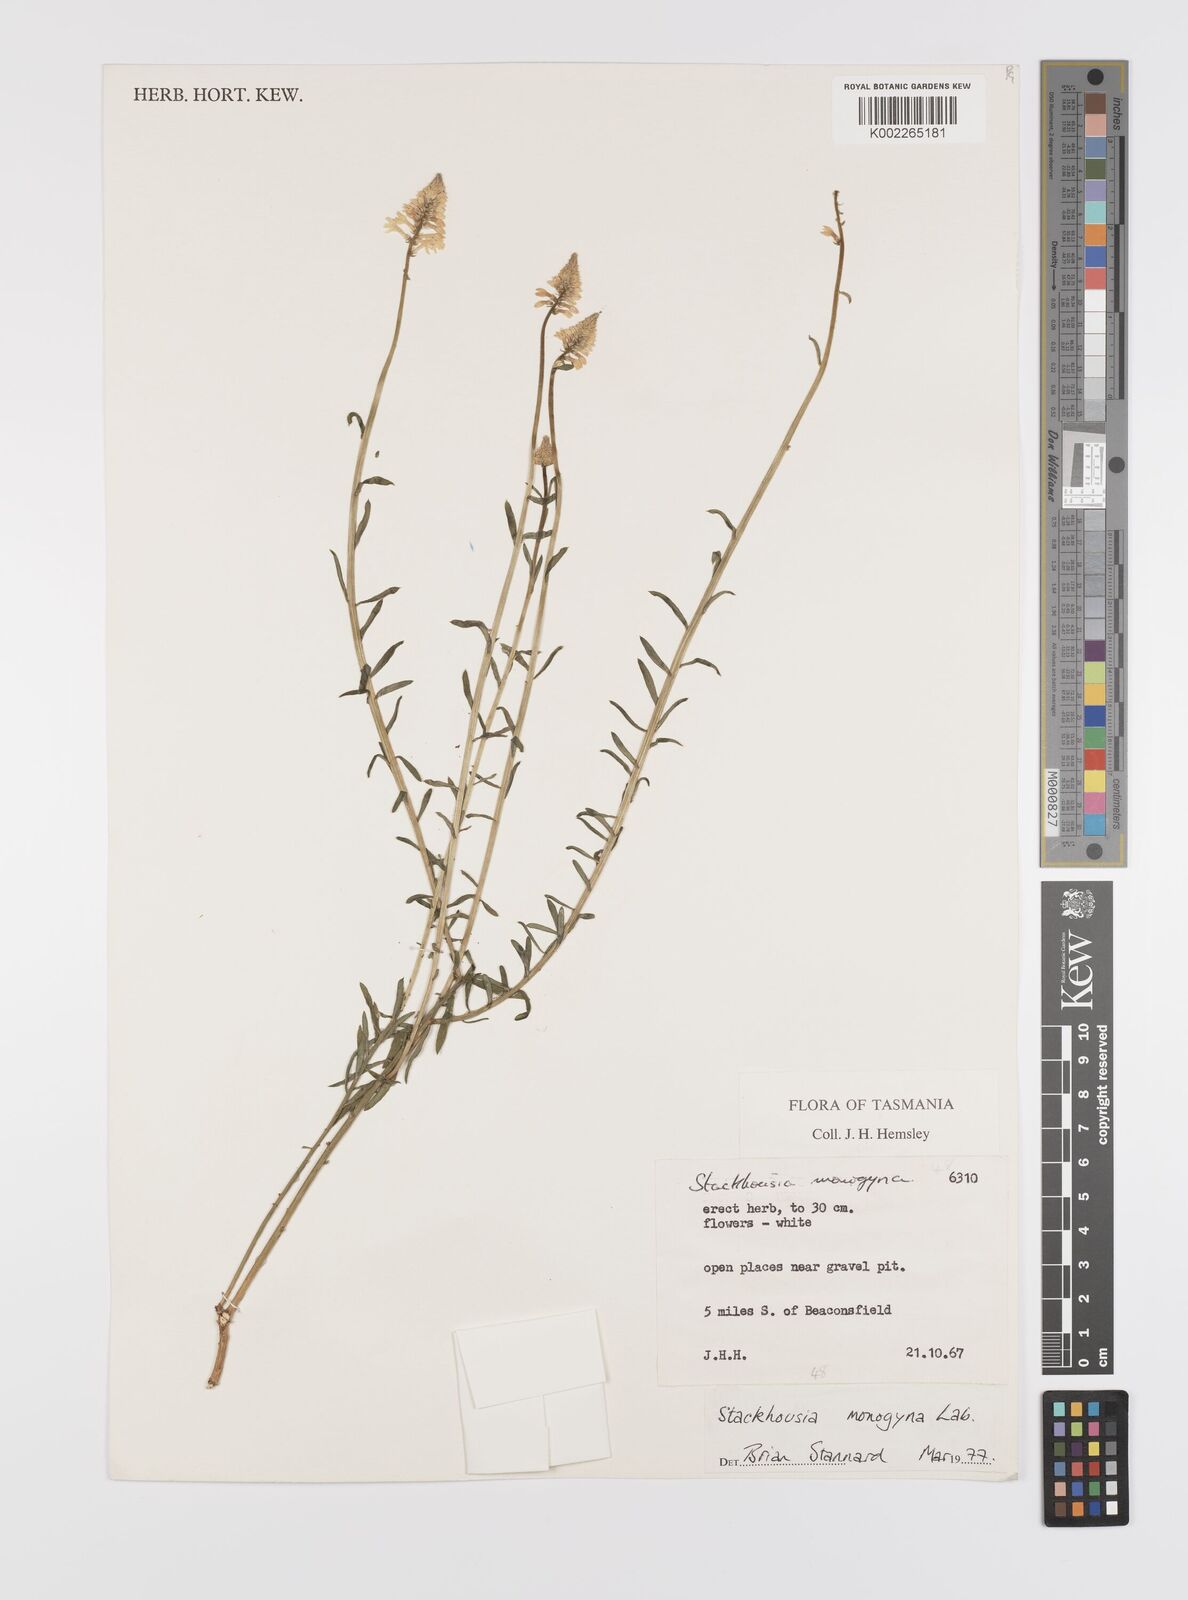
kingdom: Plantae
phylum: Tracheophyta
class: Magnoliopsida
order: Celastrales
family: Celastraceae
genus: Stackhousia
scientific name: Stackhousia monogyna
